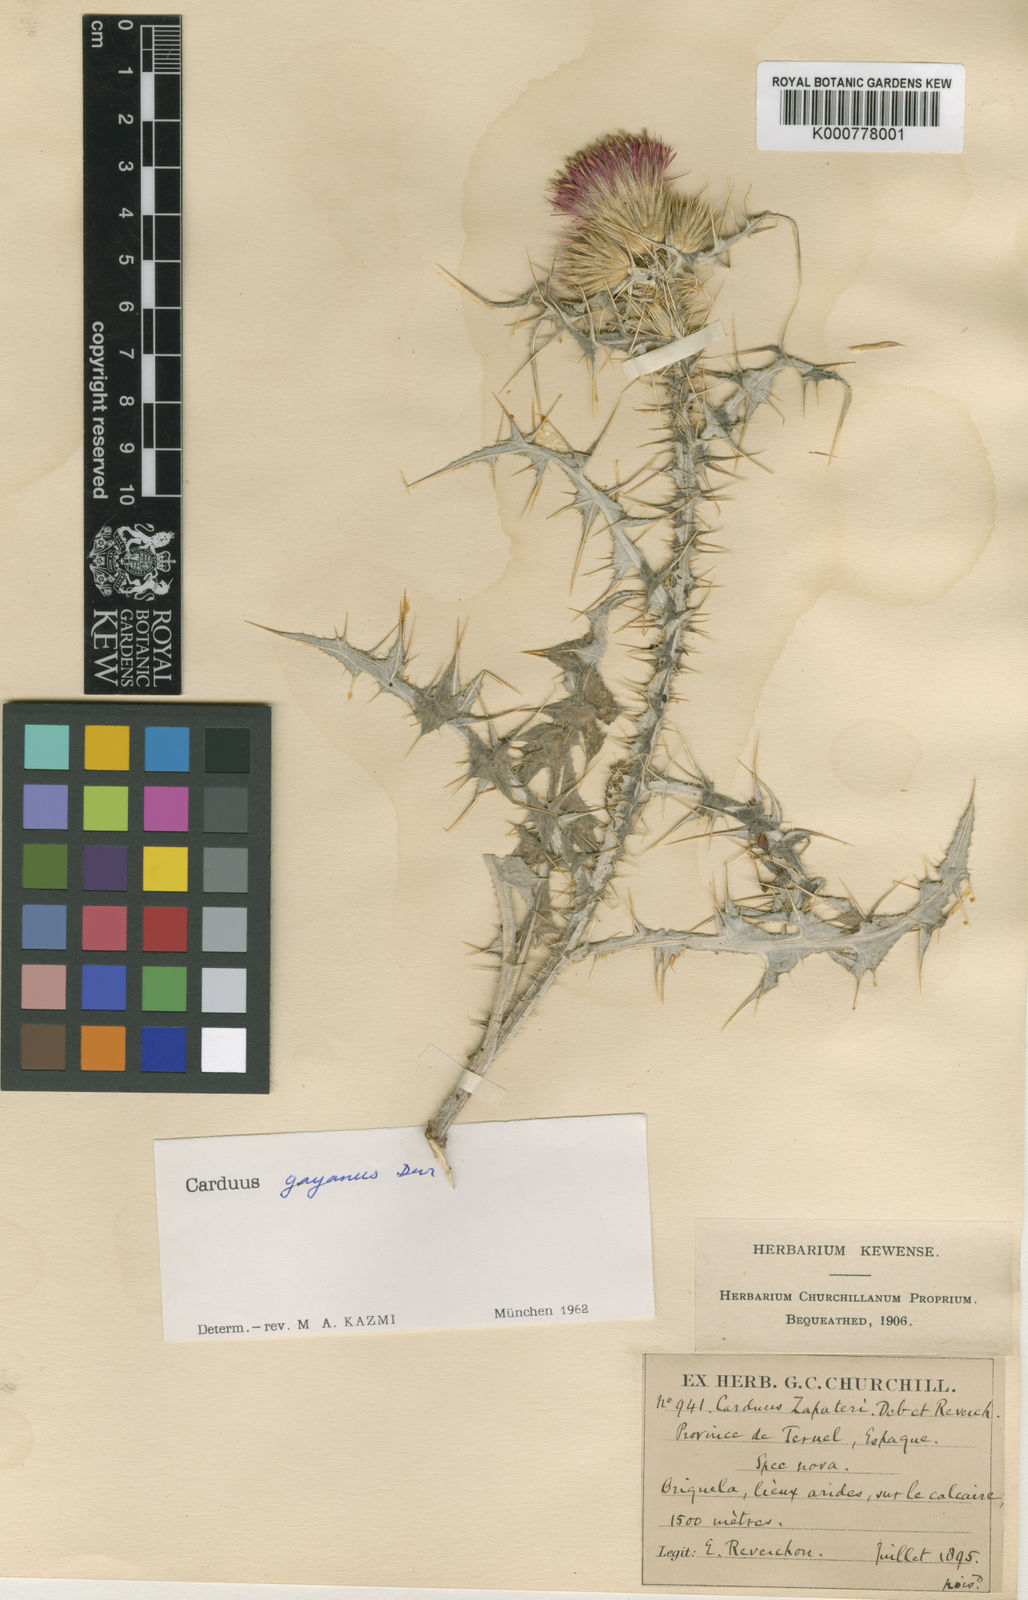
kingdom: Plantae
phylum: Tracheophyta
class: Magnoliopsida
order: Asterales
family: Asteraceae
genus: Carduus
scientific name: Carduus carpetanus
